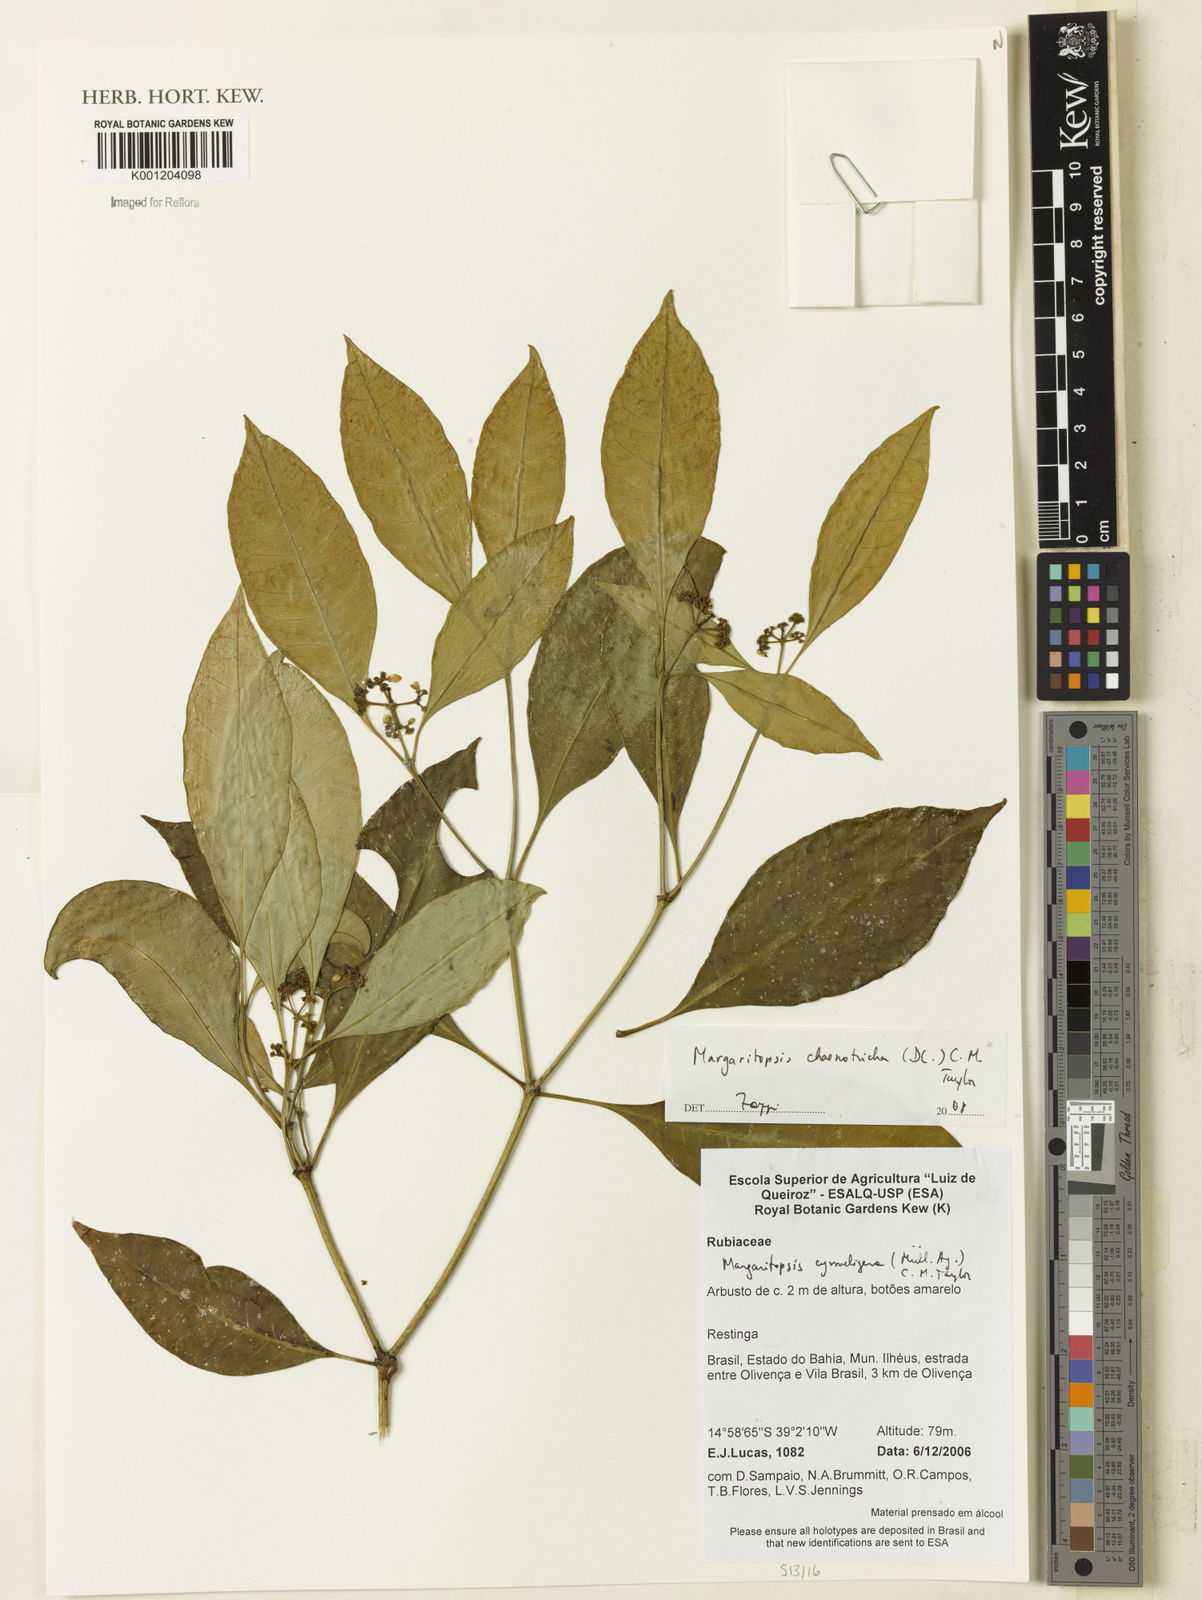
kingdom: Plantae
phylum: Tracheophyta
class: Magnoliopsida
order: Gentianales
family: Rubiaceae
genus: Eumachia
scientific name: Eumachia chaenotricha
